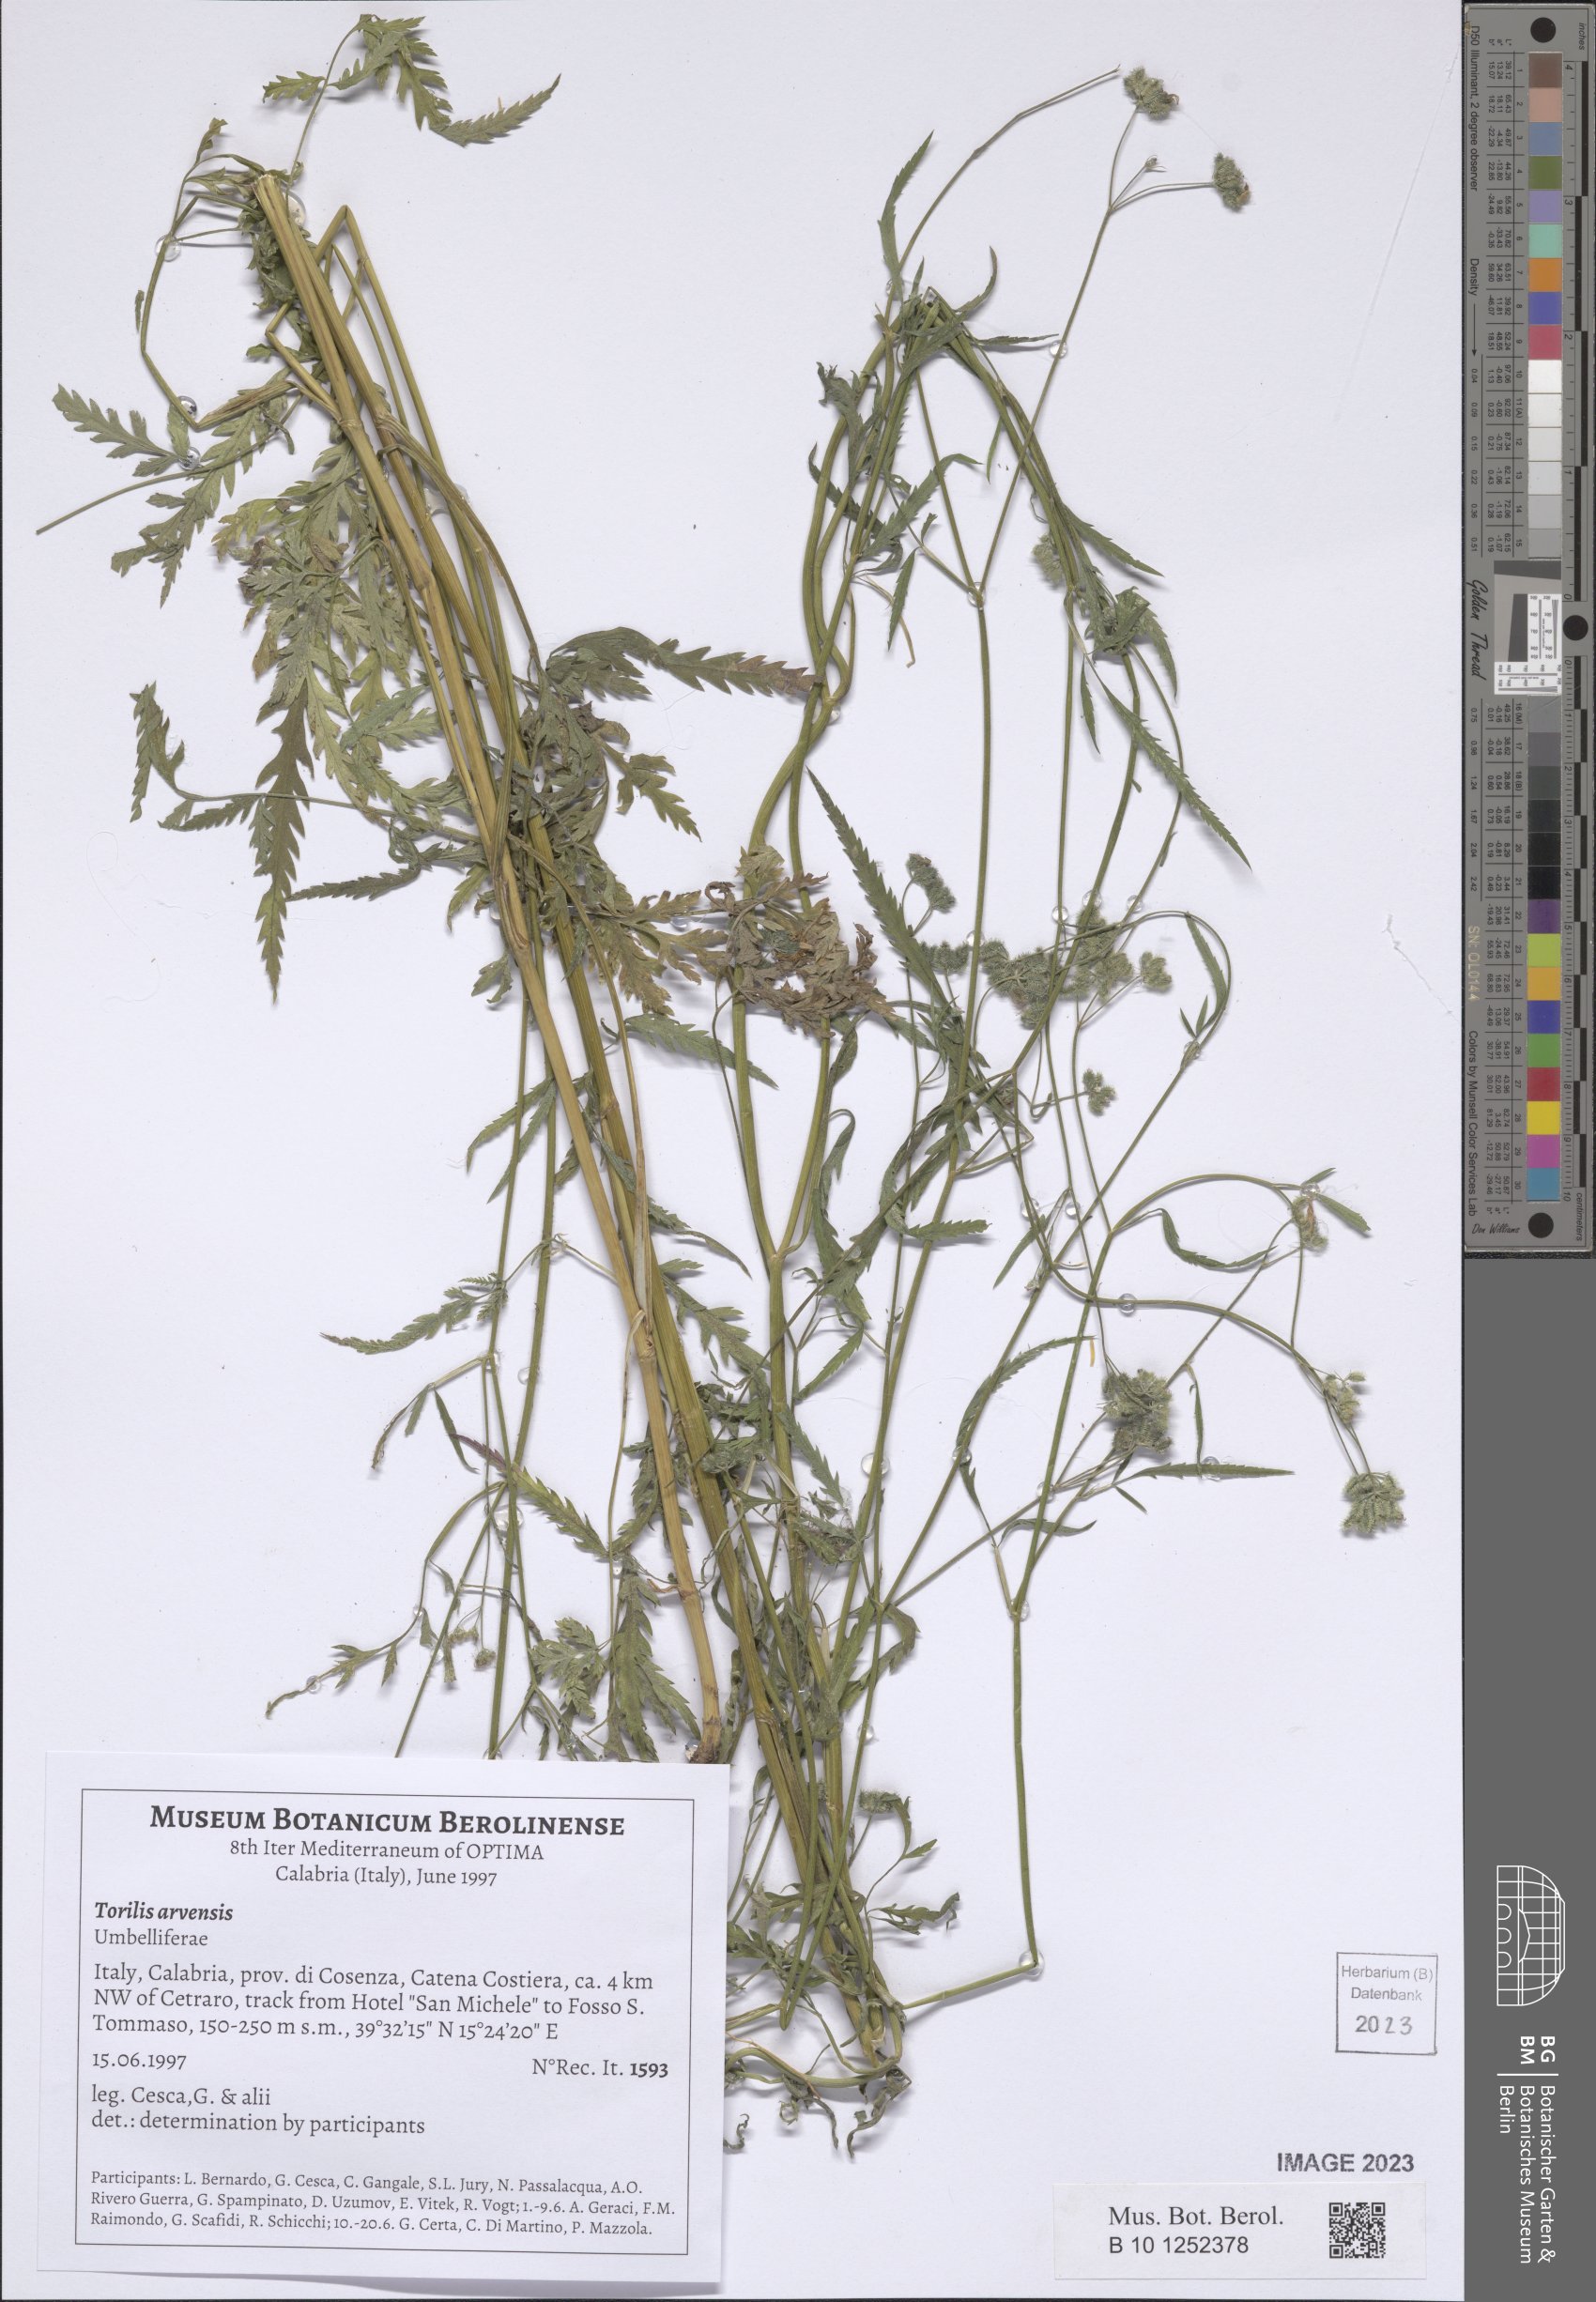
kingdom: Plantae
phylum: Tracheophyta
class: Magnoliopsida
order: Apiales
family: Apiaceae
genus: Torilis
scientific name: Torilis arvensis
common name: Spreading hedge-parsley
